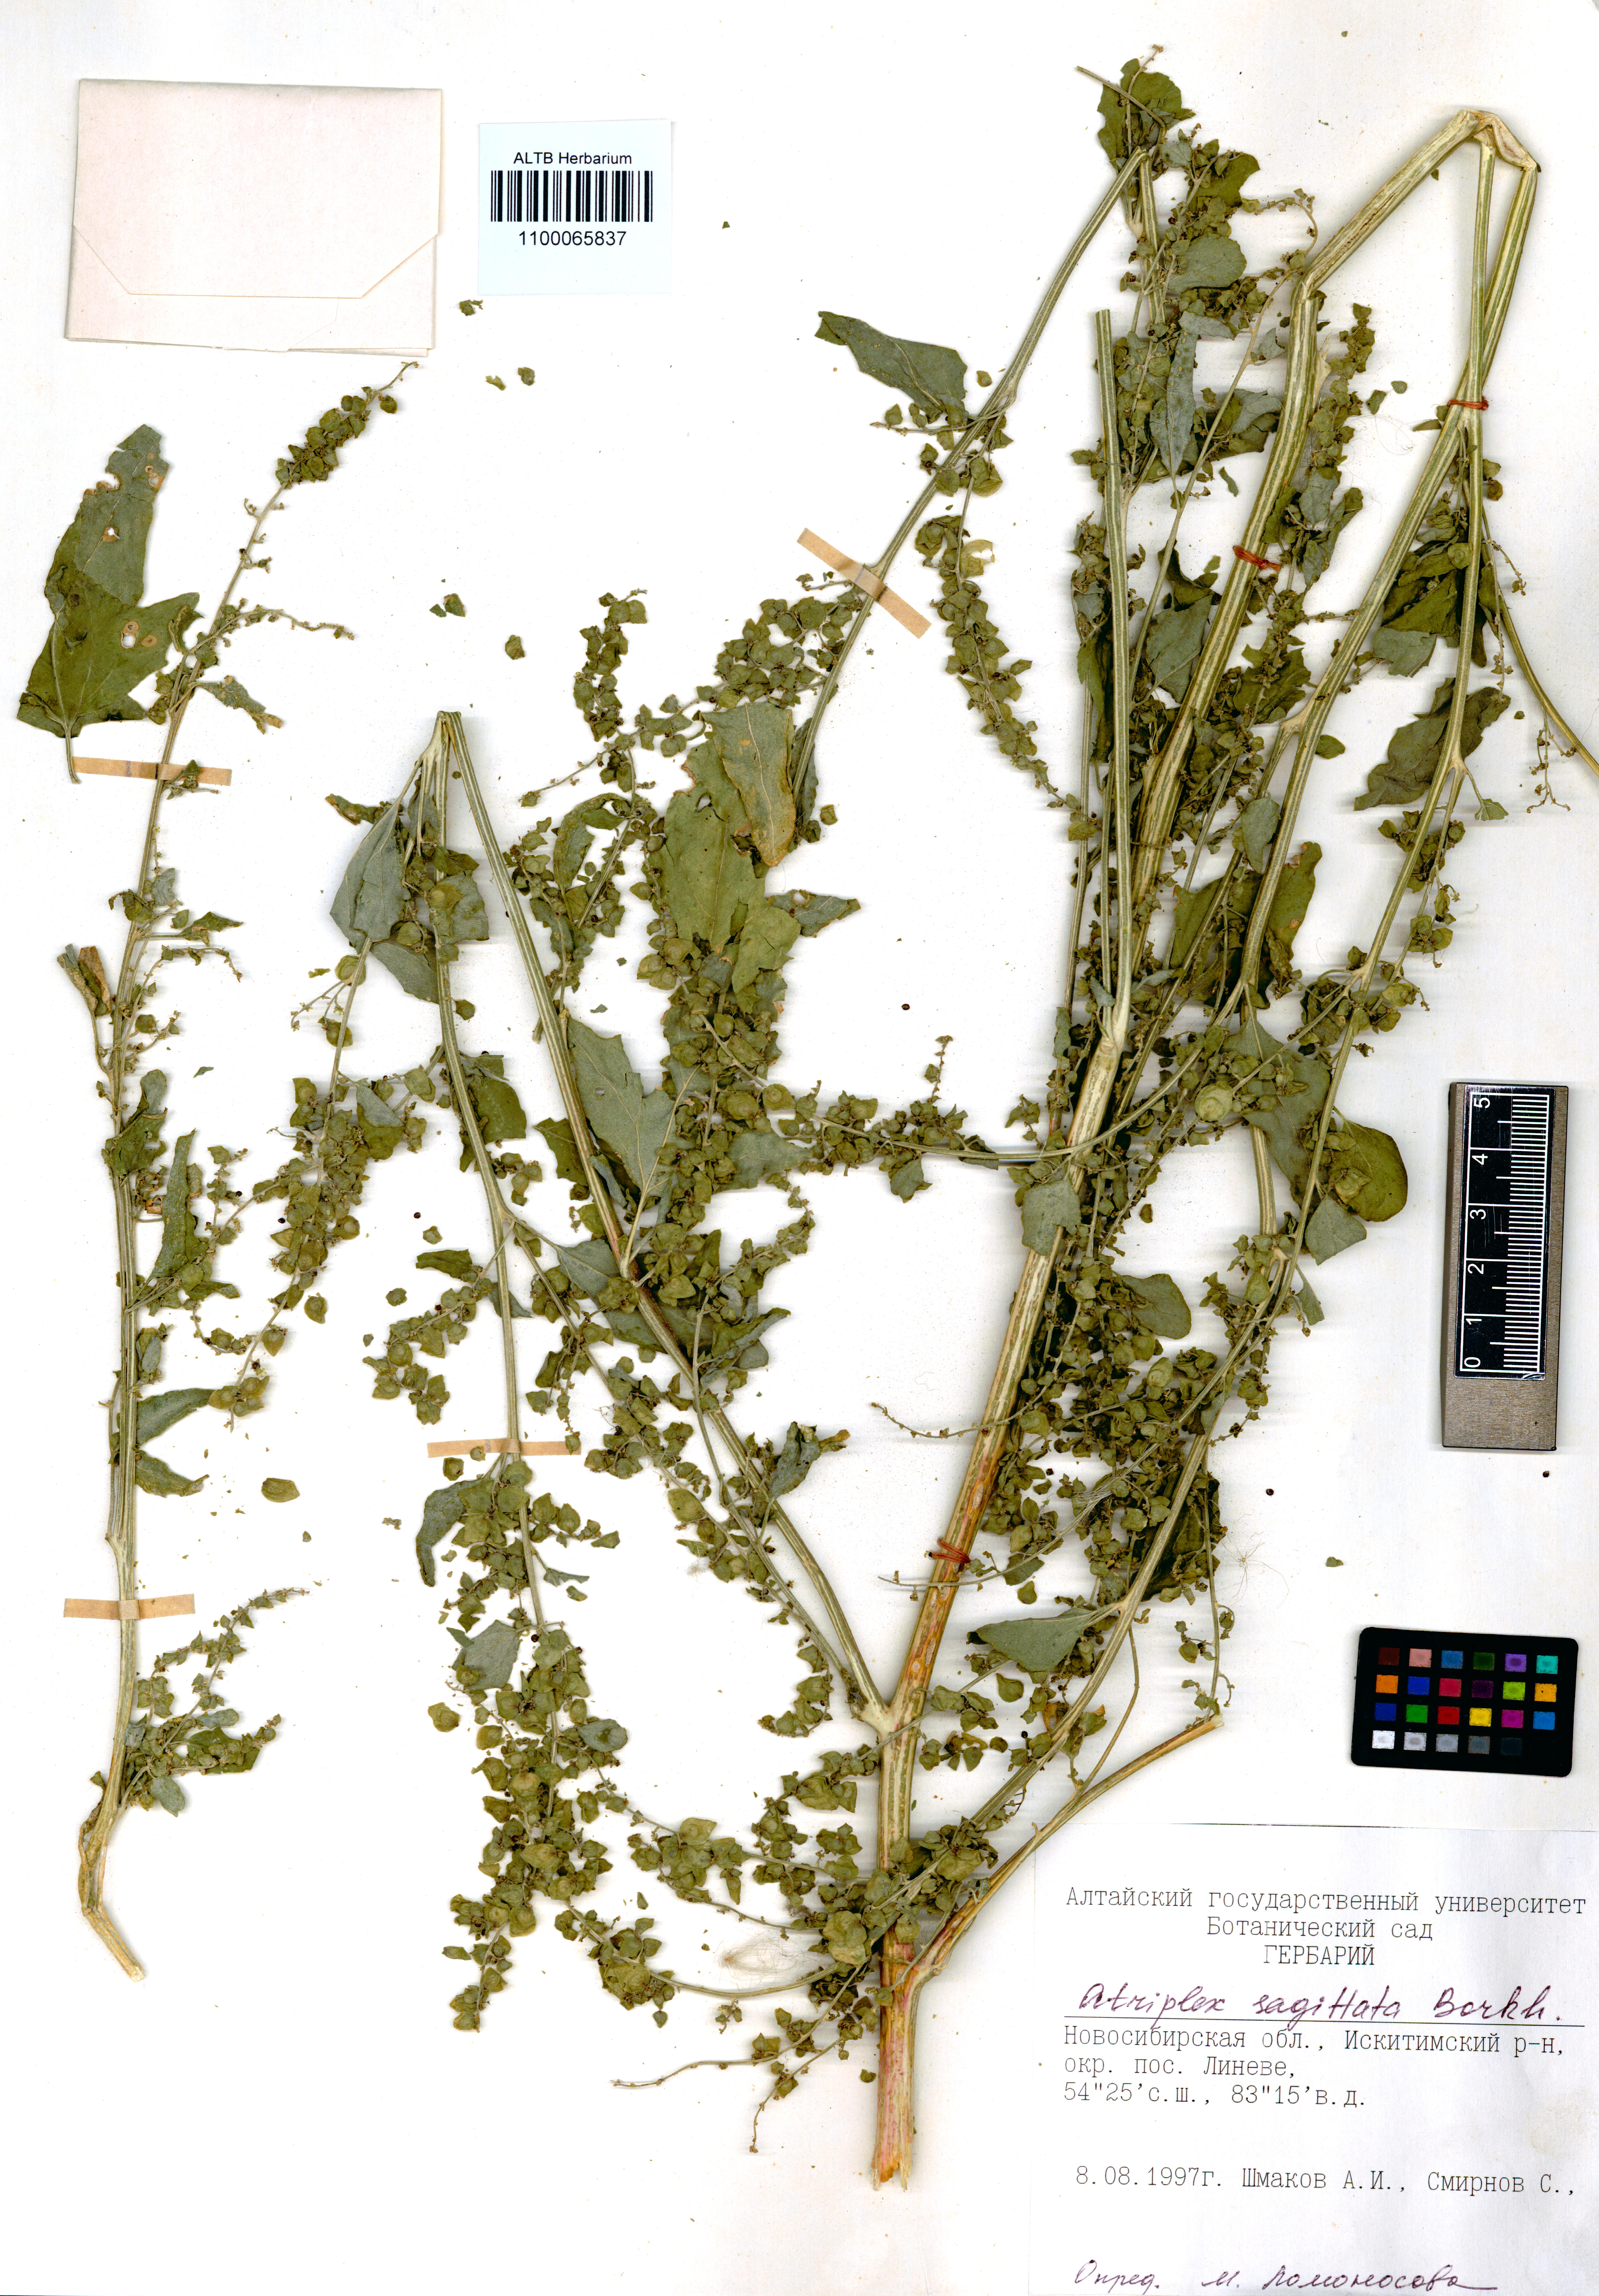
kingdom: Plantae
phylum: Tracheophyta
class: Magnoliopsida
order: Caryophyllales
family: Amaranthaceae
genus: Atriplex
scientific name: Atriplex sagittata
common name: Purple orache
